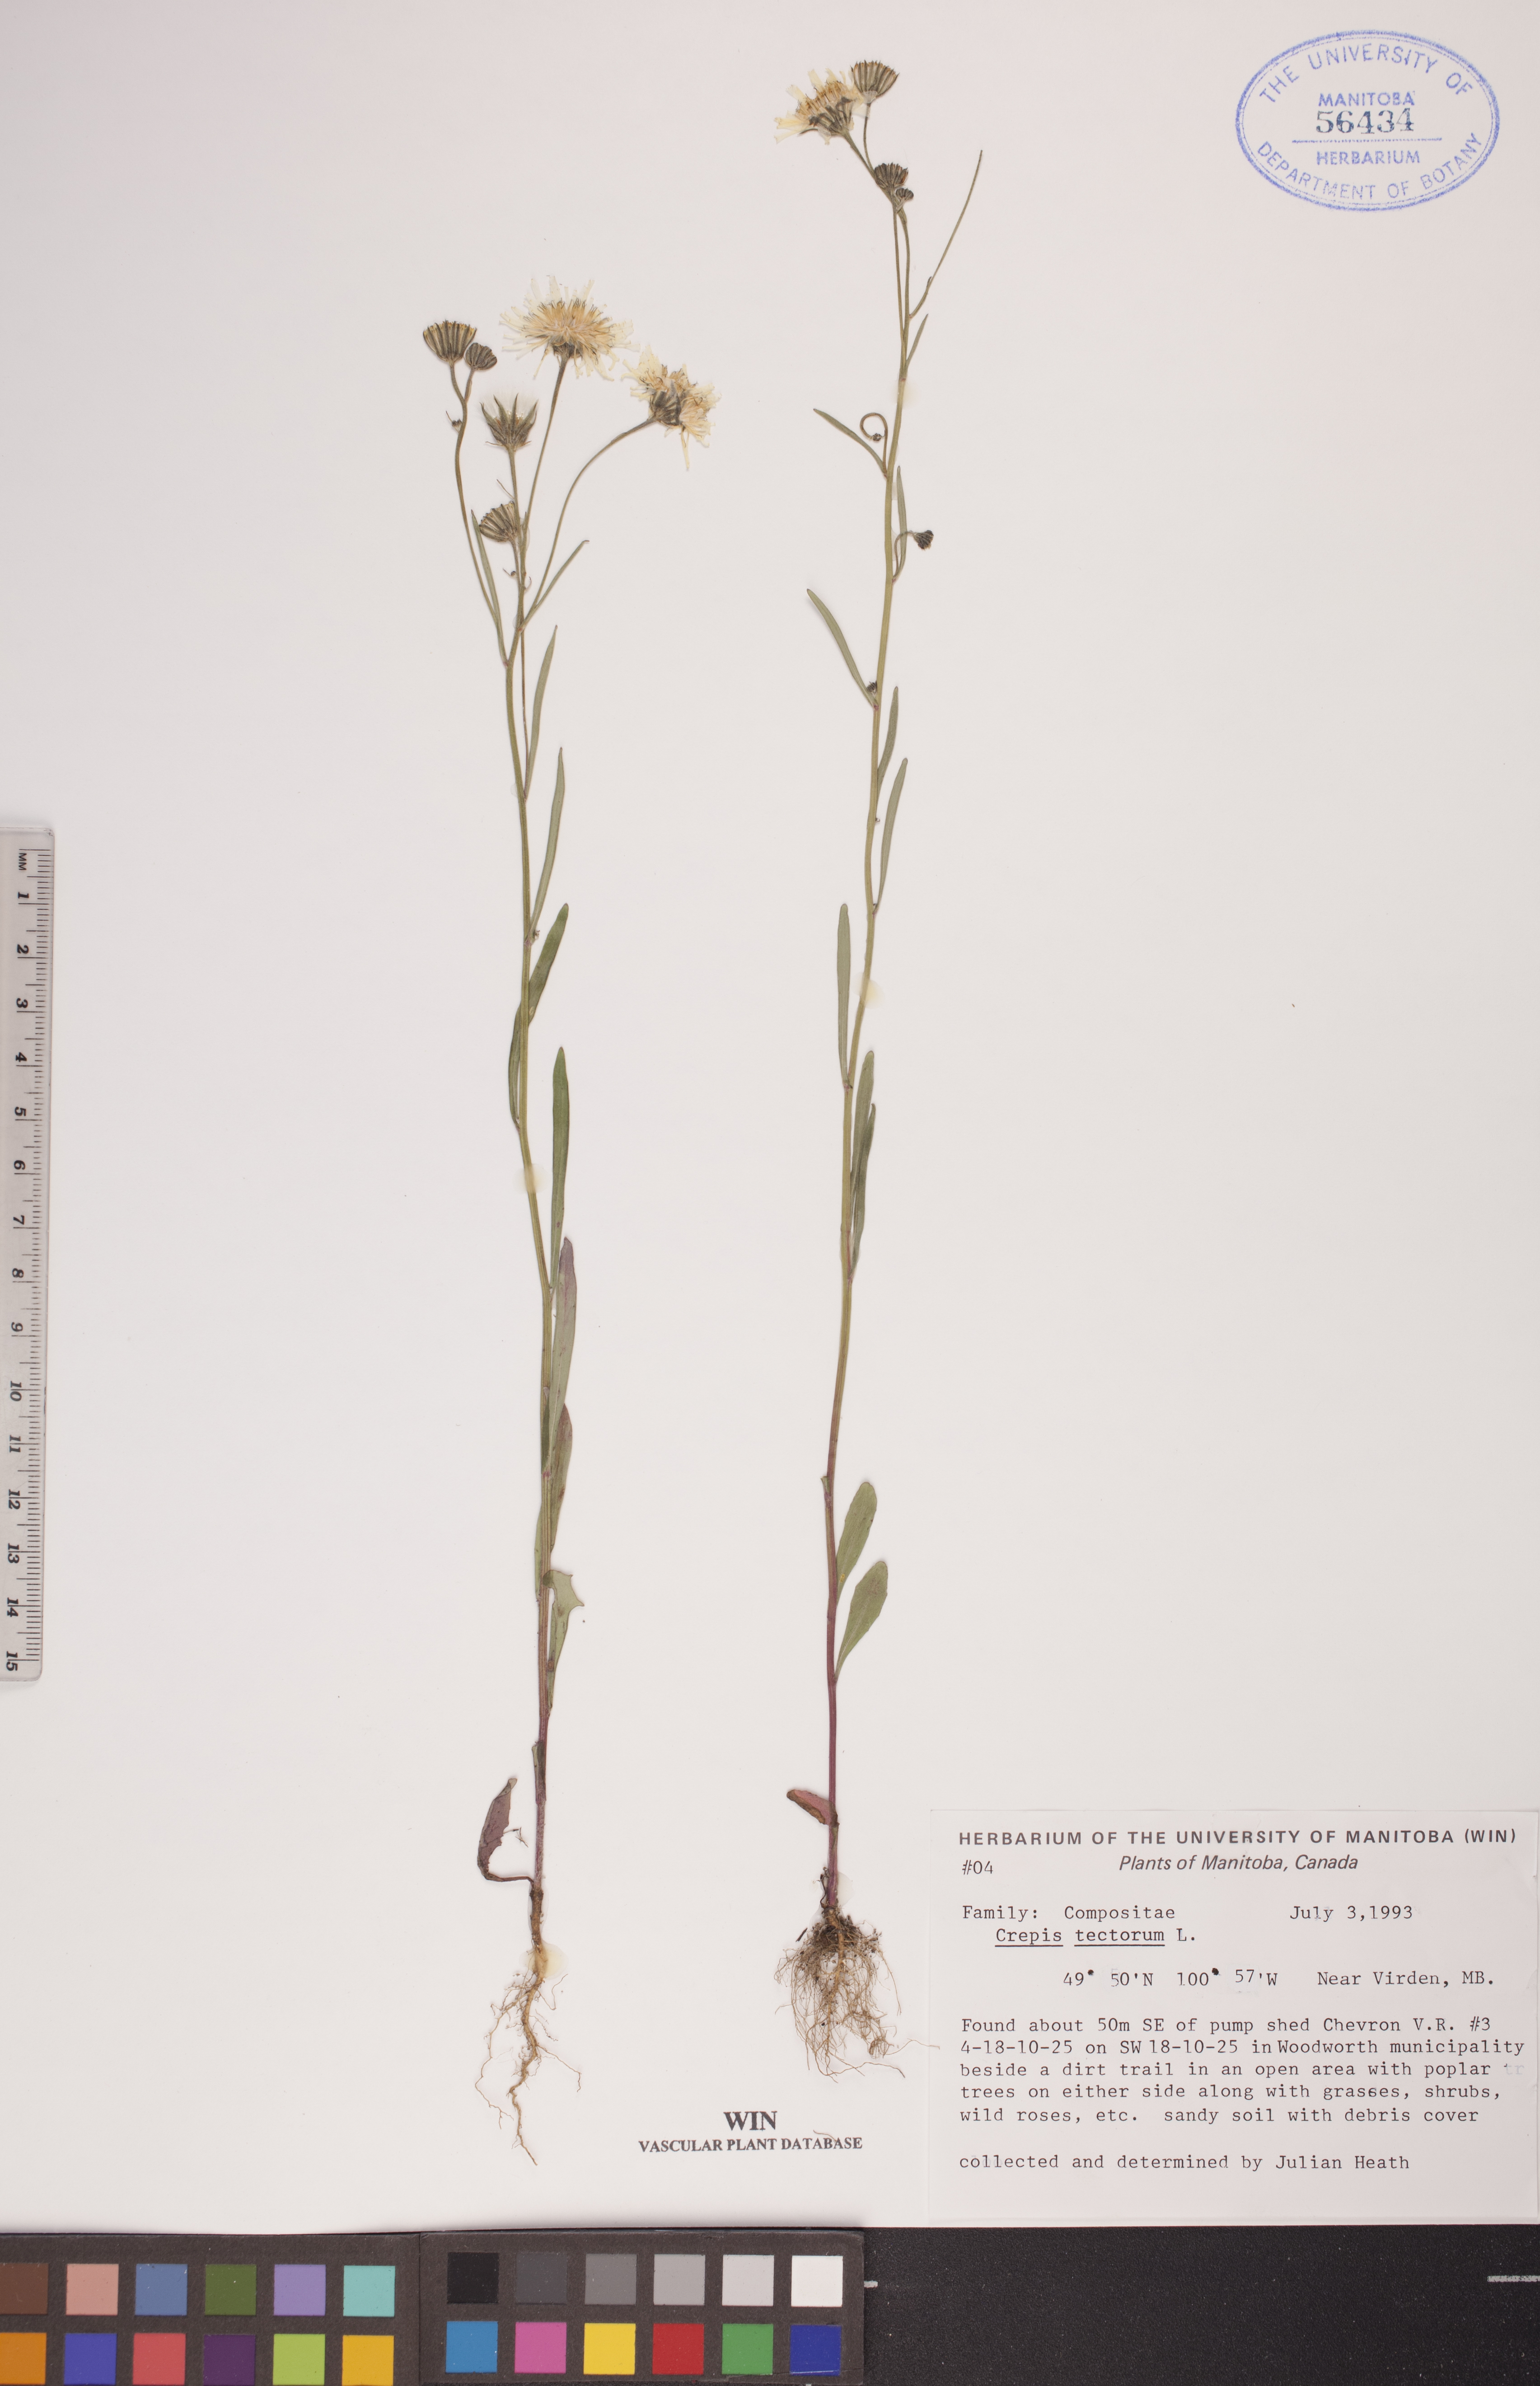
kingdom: Plantae
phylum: Tracheophyta
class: Magnoliopsida
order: Asterales
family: Asteraceae
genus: Crepis
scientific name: Crepis tectorum
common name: Narrow-leaved hawk's-beard
